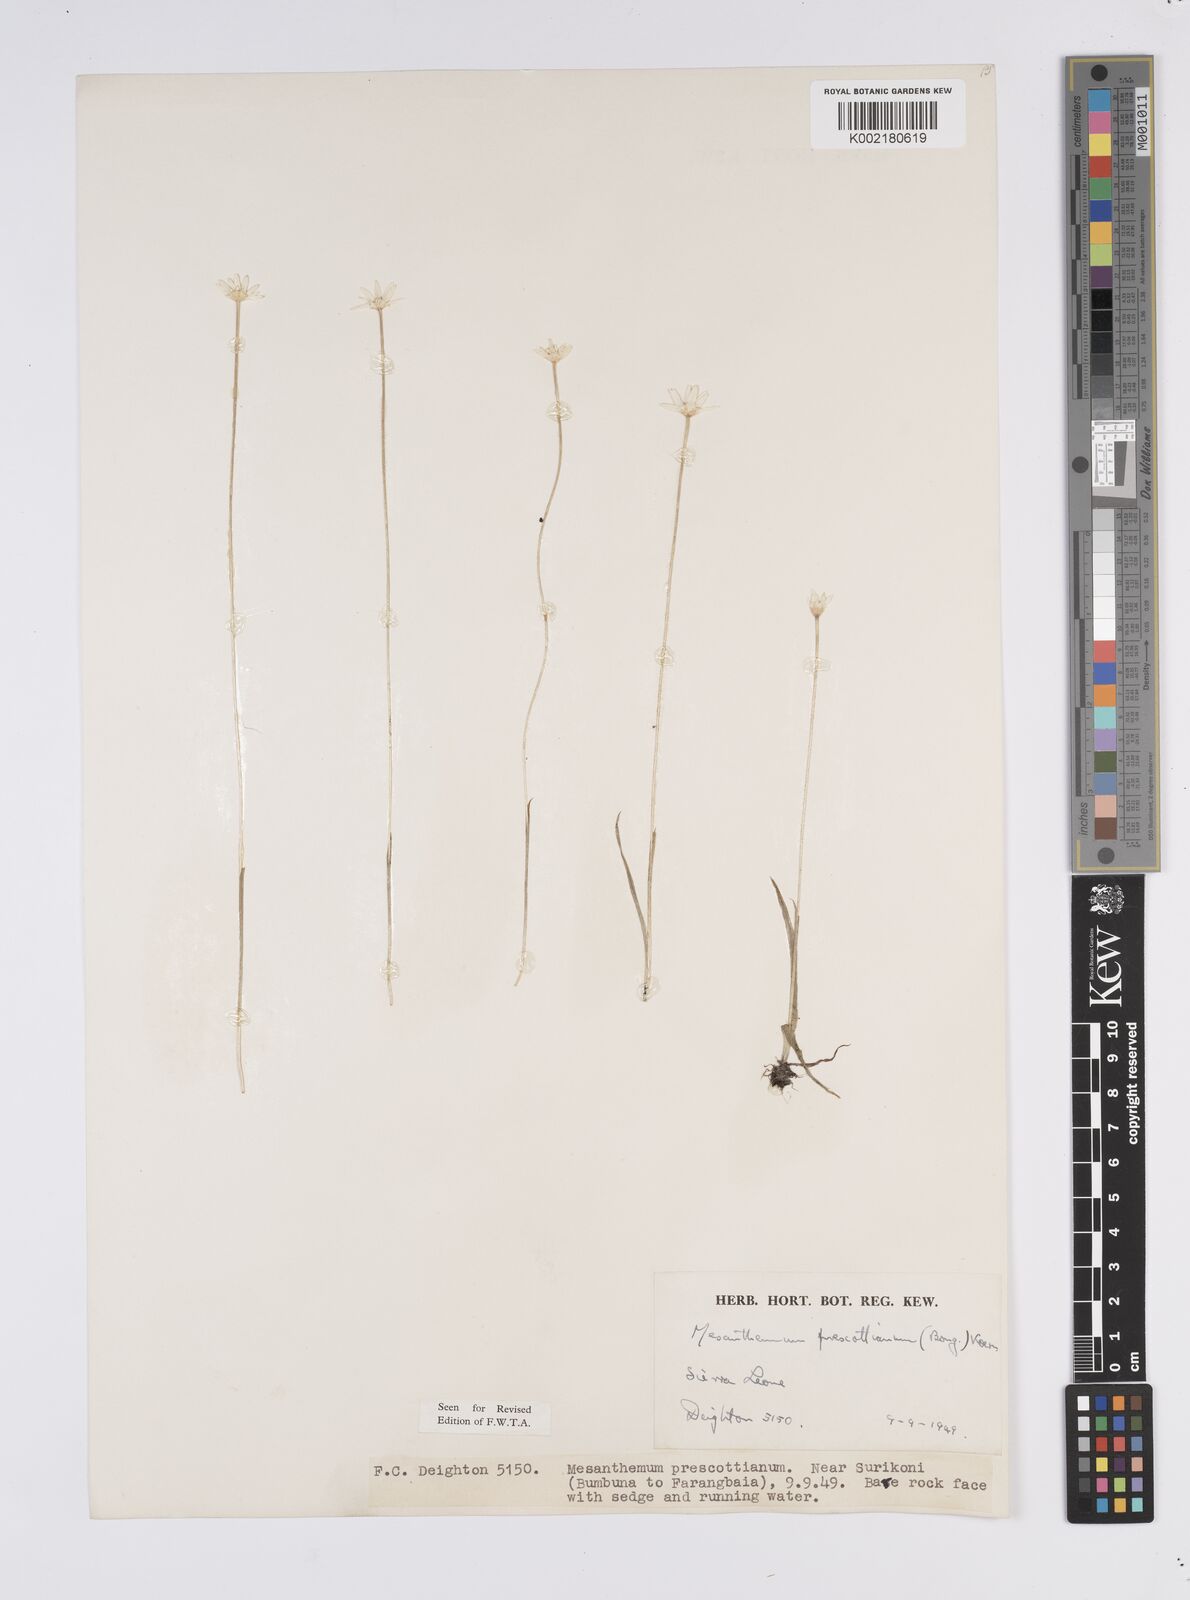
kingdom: Plantae
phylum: Tracheophyta
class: Liliopsida
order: Poales
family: Eriocaulaceae
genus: Mesanthemum
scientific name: Mesanthemum prescottianum
